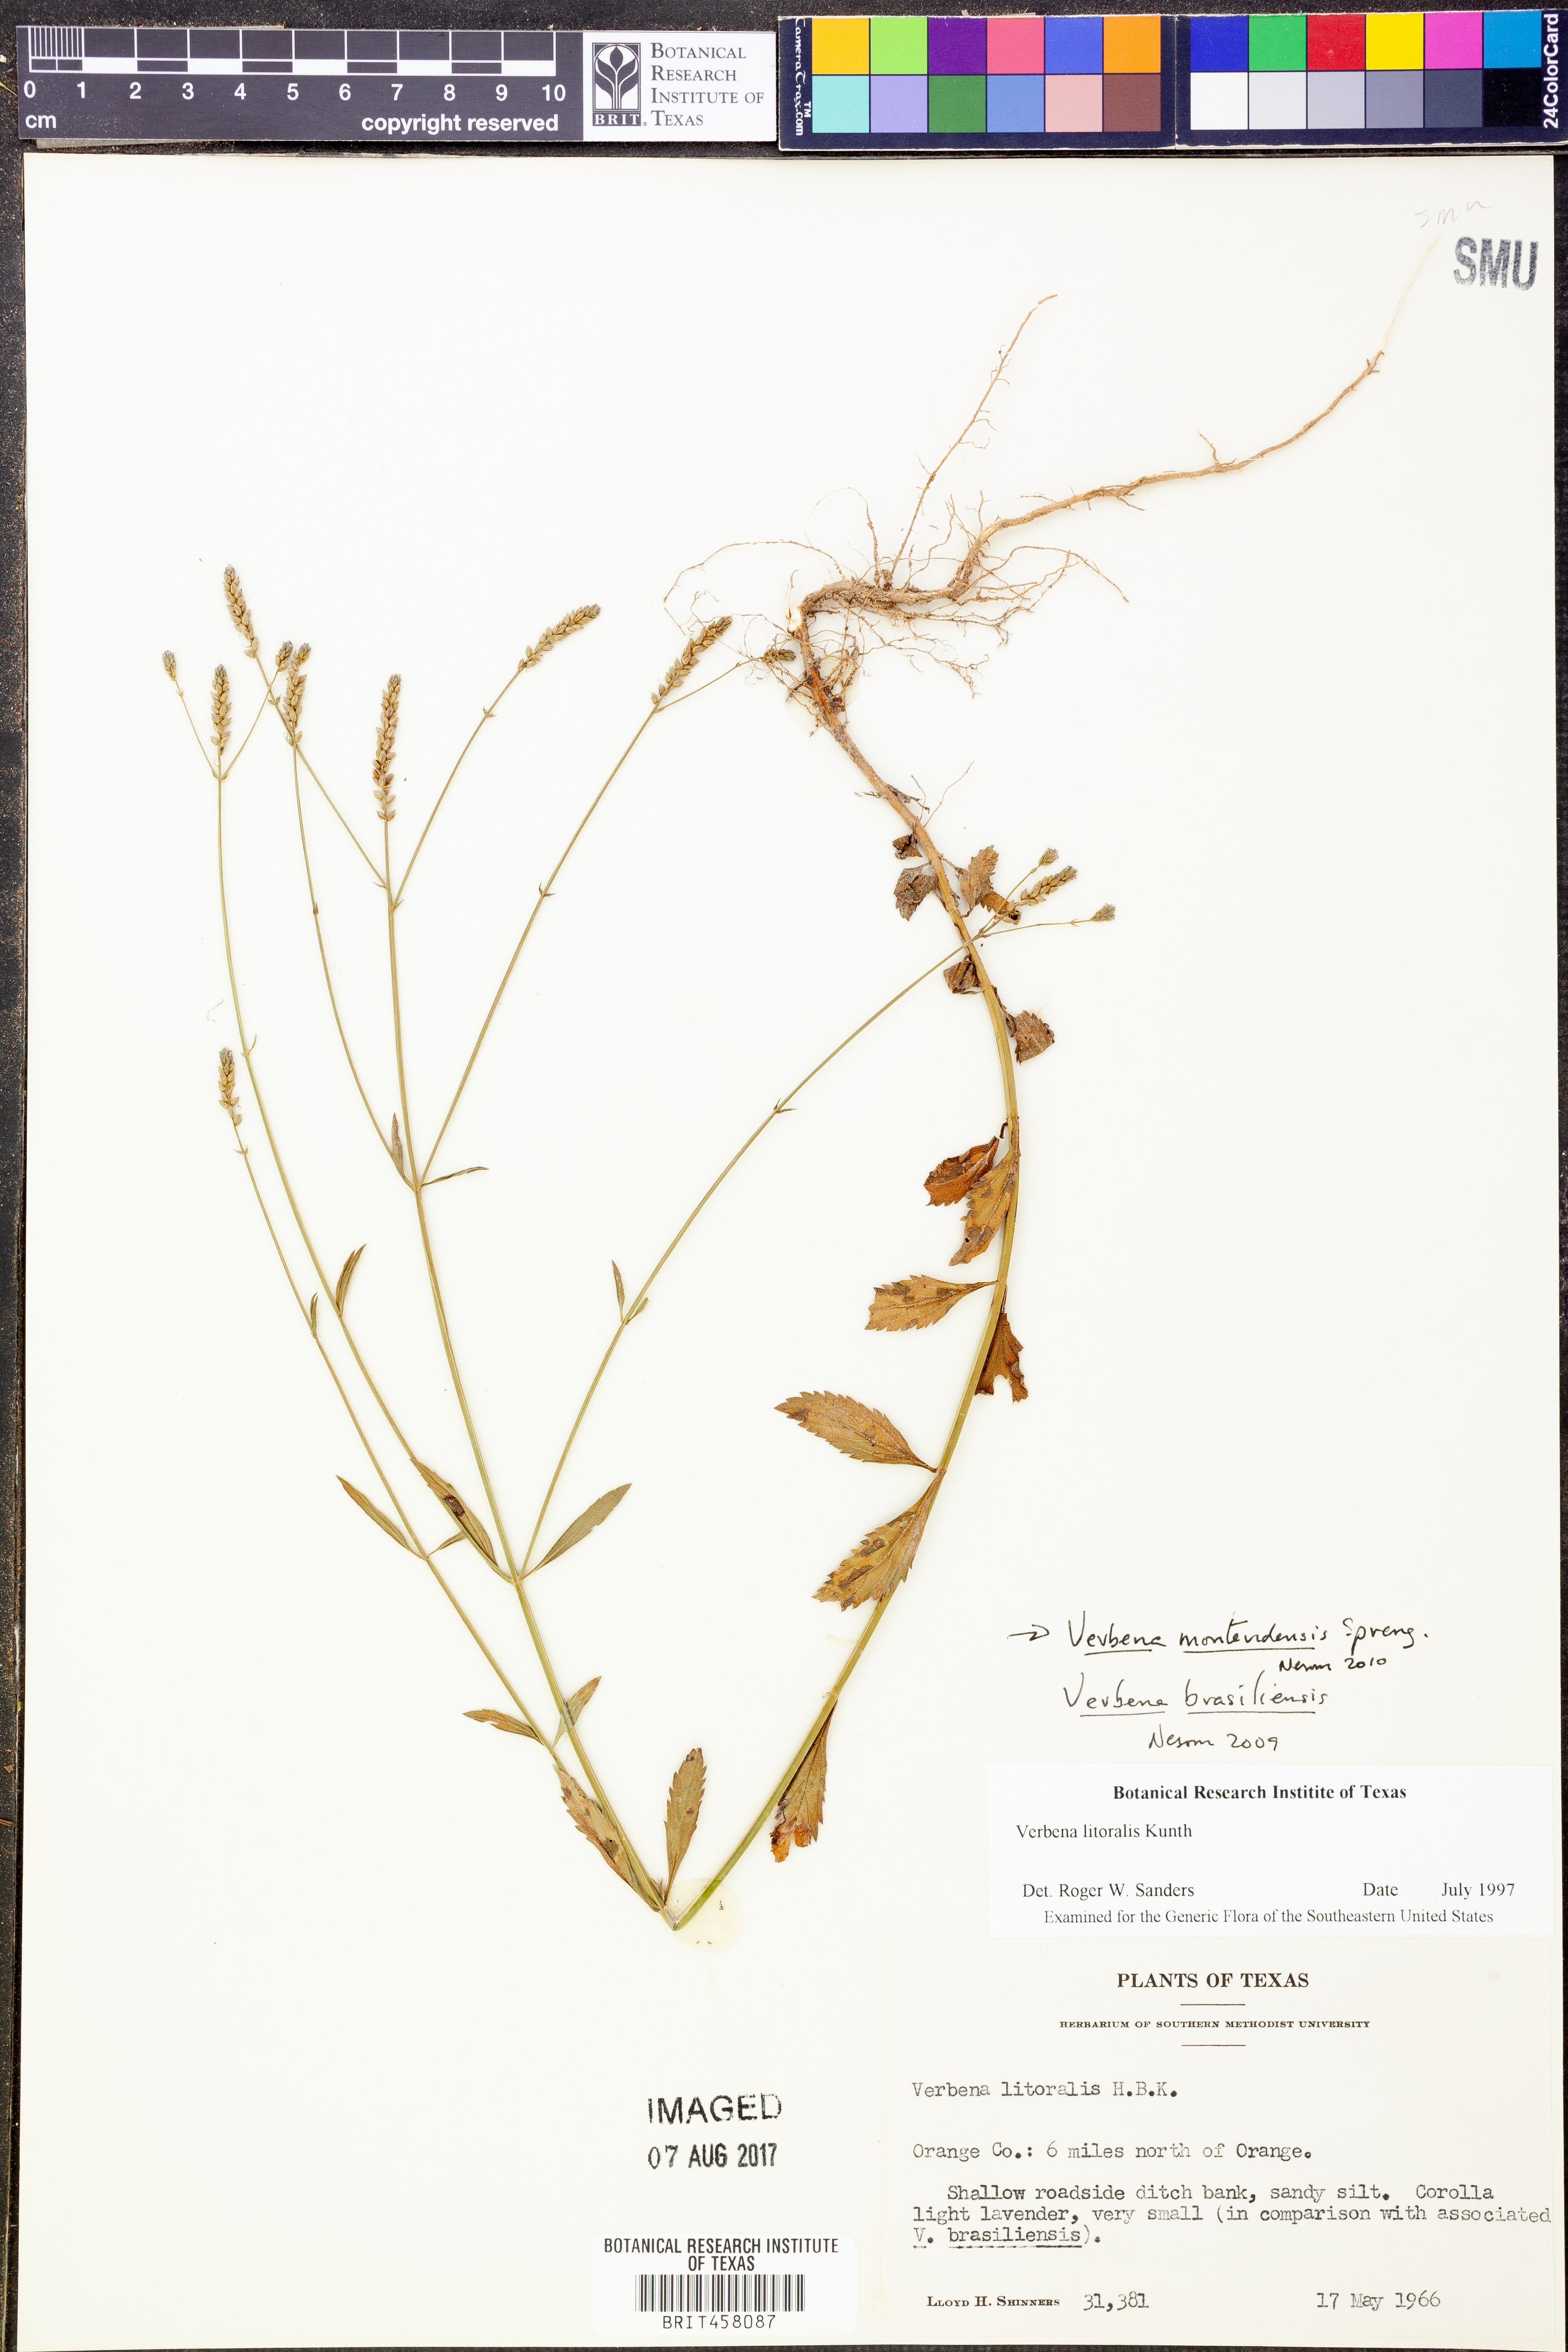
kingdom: Plantae
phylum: Tracheophyta
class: Magnoliopsida
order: Lamiales
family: Verbenaceae
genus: Verbena
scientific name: Verbena montevidensis
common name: Uruguayan vervain
